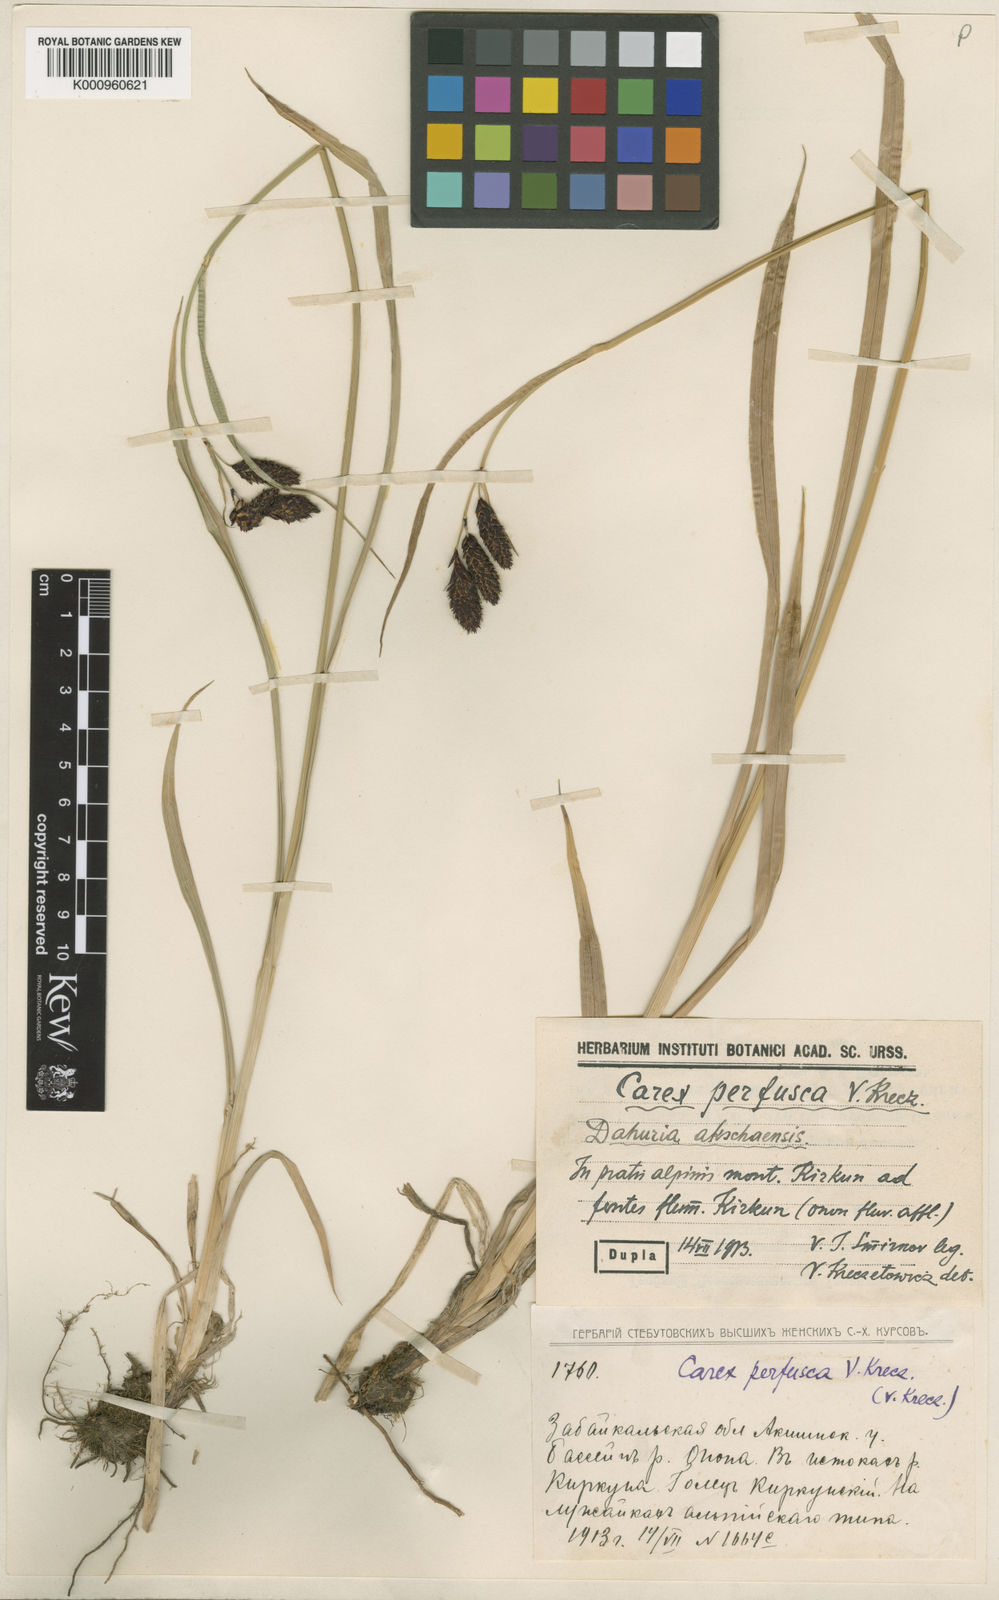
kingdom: Plantae
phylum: Tracheophyta
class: Liliopsida
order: Poales
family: Cyperaceae
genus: Carex
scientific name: Carex aterrima
